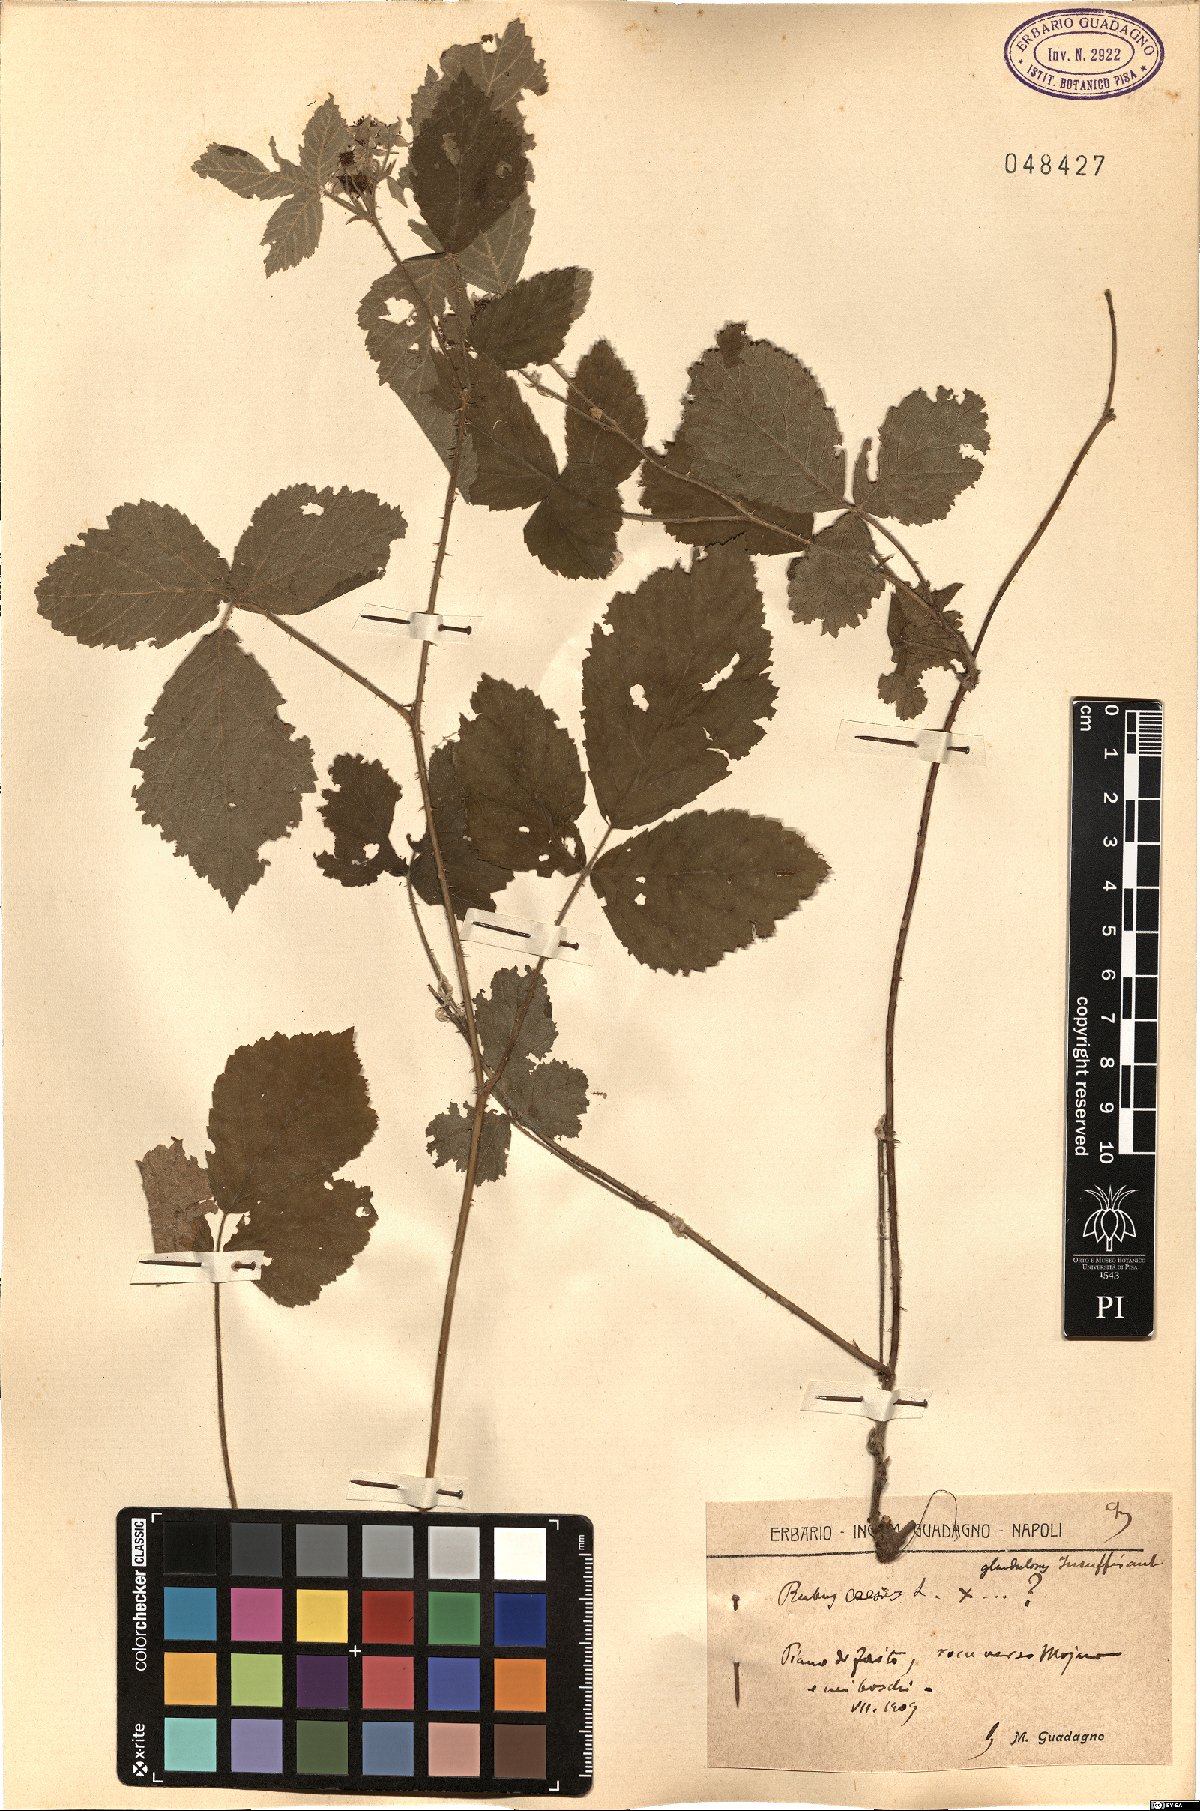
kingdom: Plantae
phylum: Tracheophyta
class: Magnoliopsida
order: Rosales
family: Rosaceae
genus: Rubus
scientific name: Rubus caesius
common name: Dewberry
